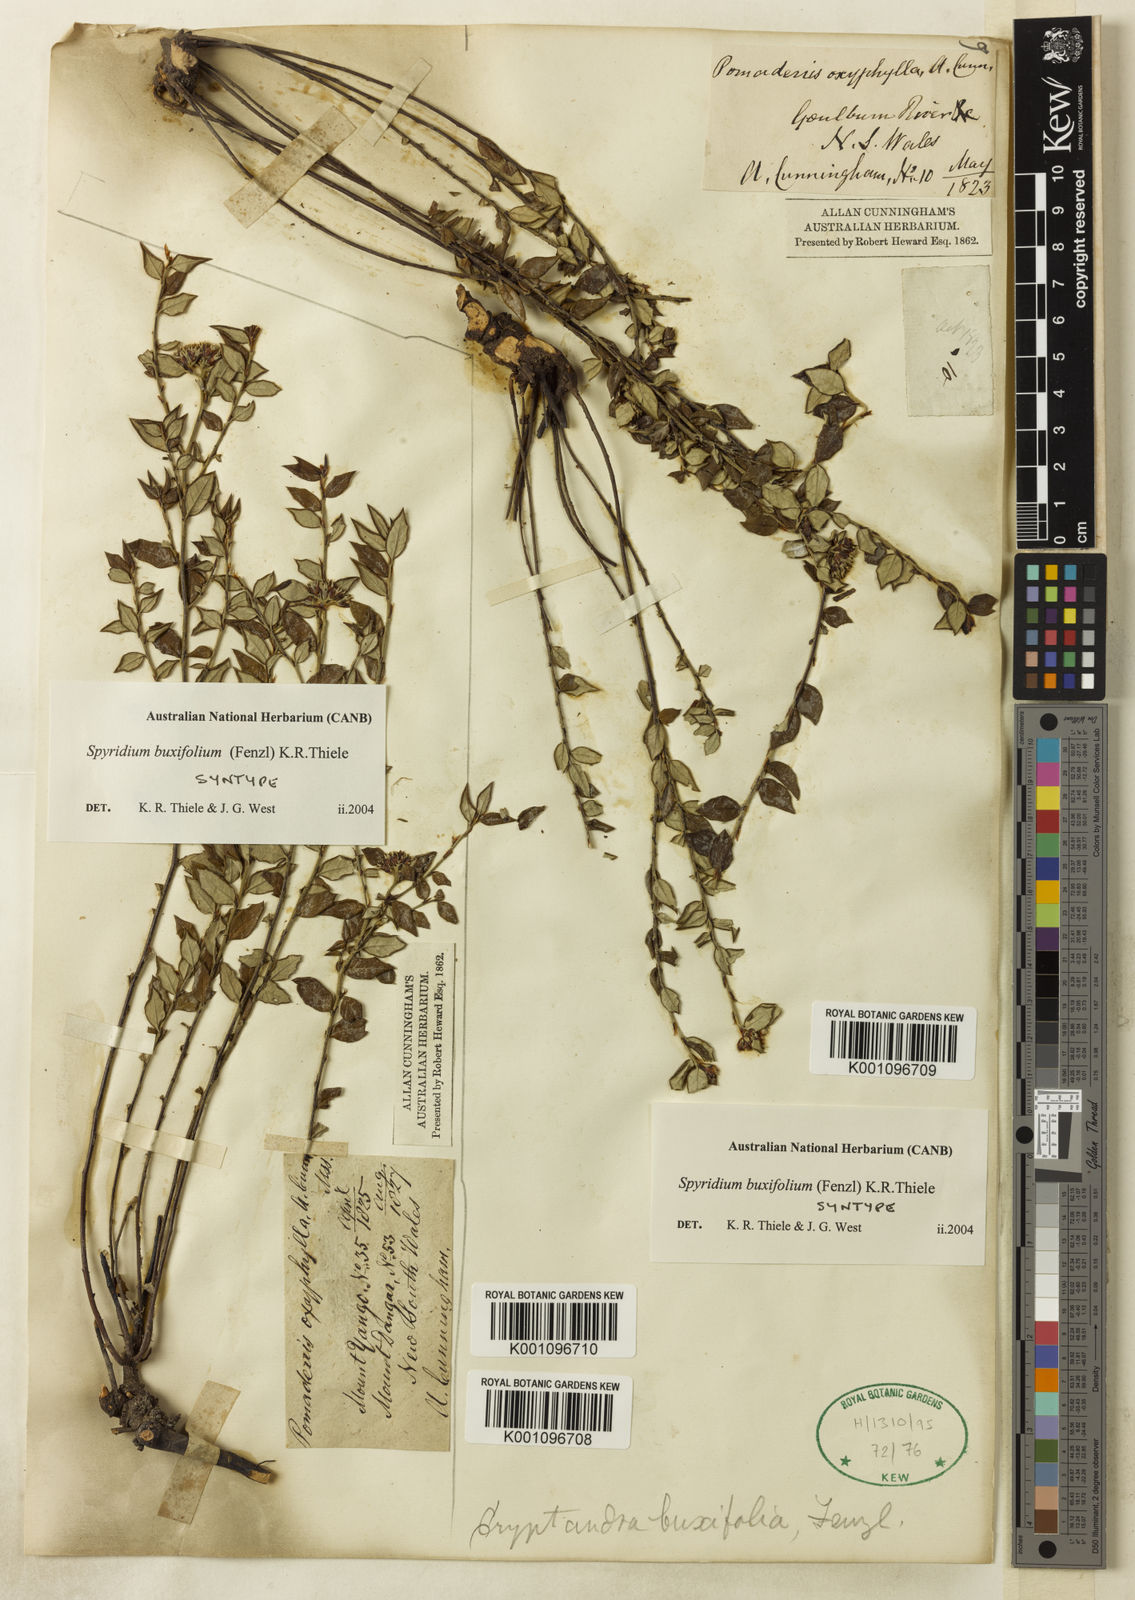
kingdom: Plantae
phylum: Tracheophyta
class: Magnoliopsida
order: Rosales
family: Rhamnaceae
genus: Spyridium
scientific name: Spyridium buxifolium
